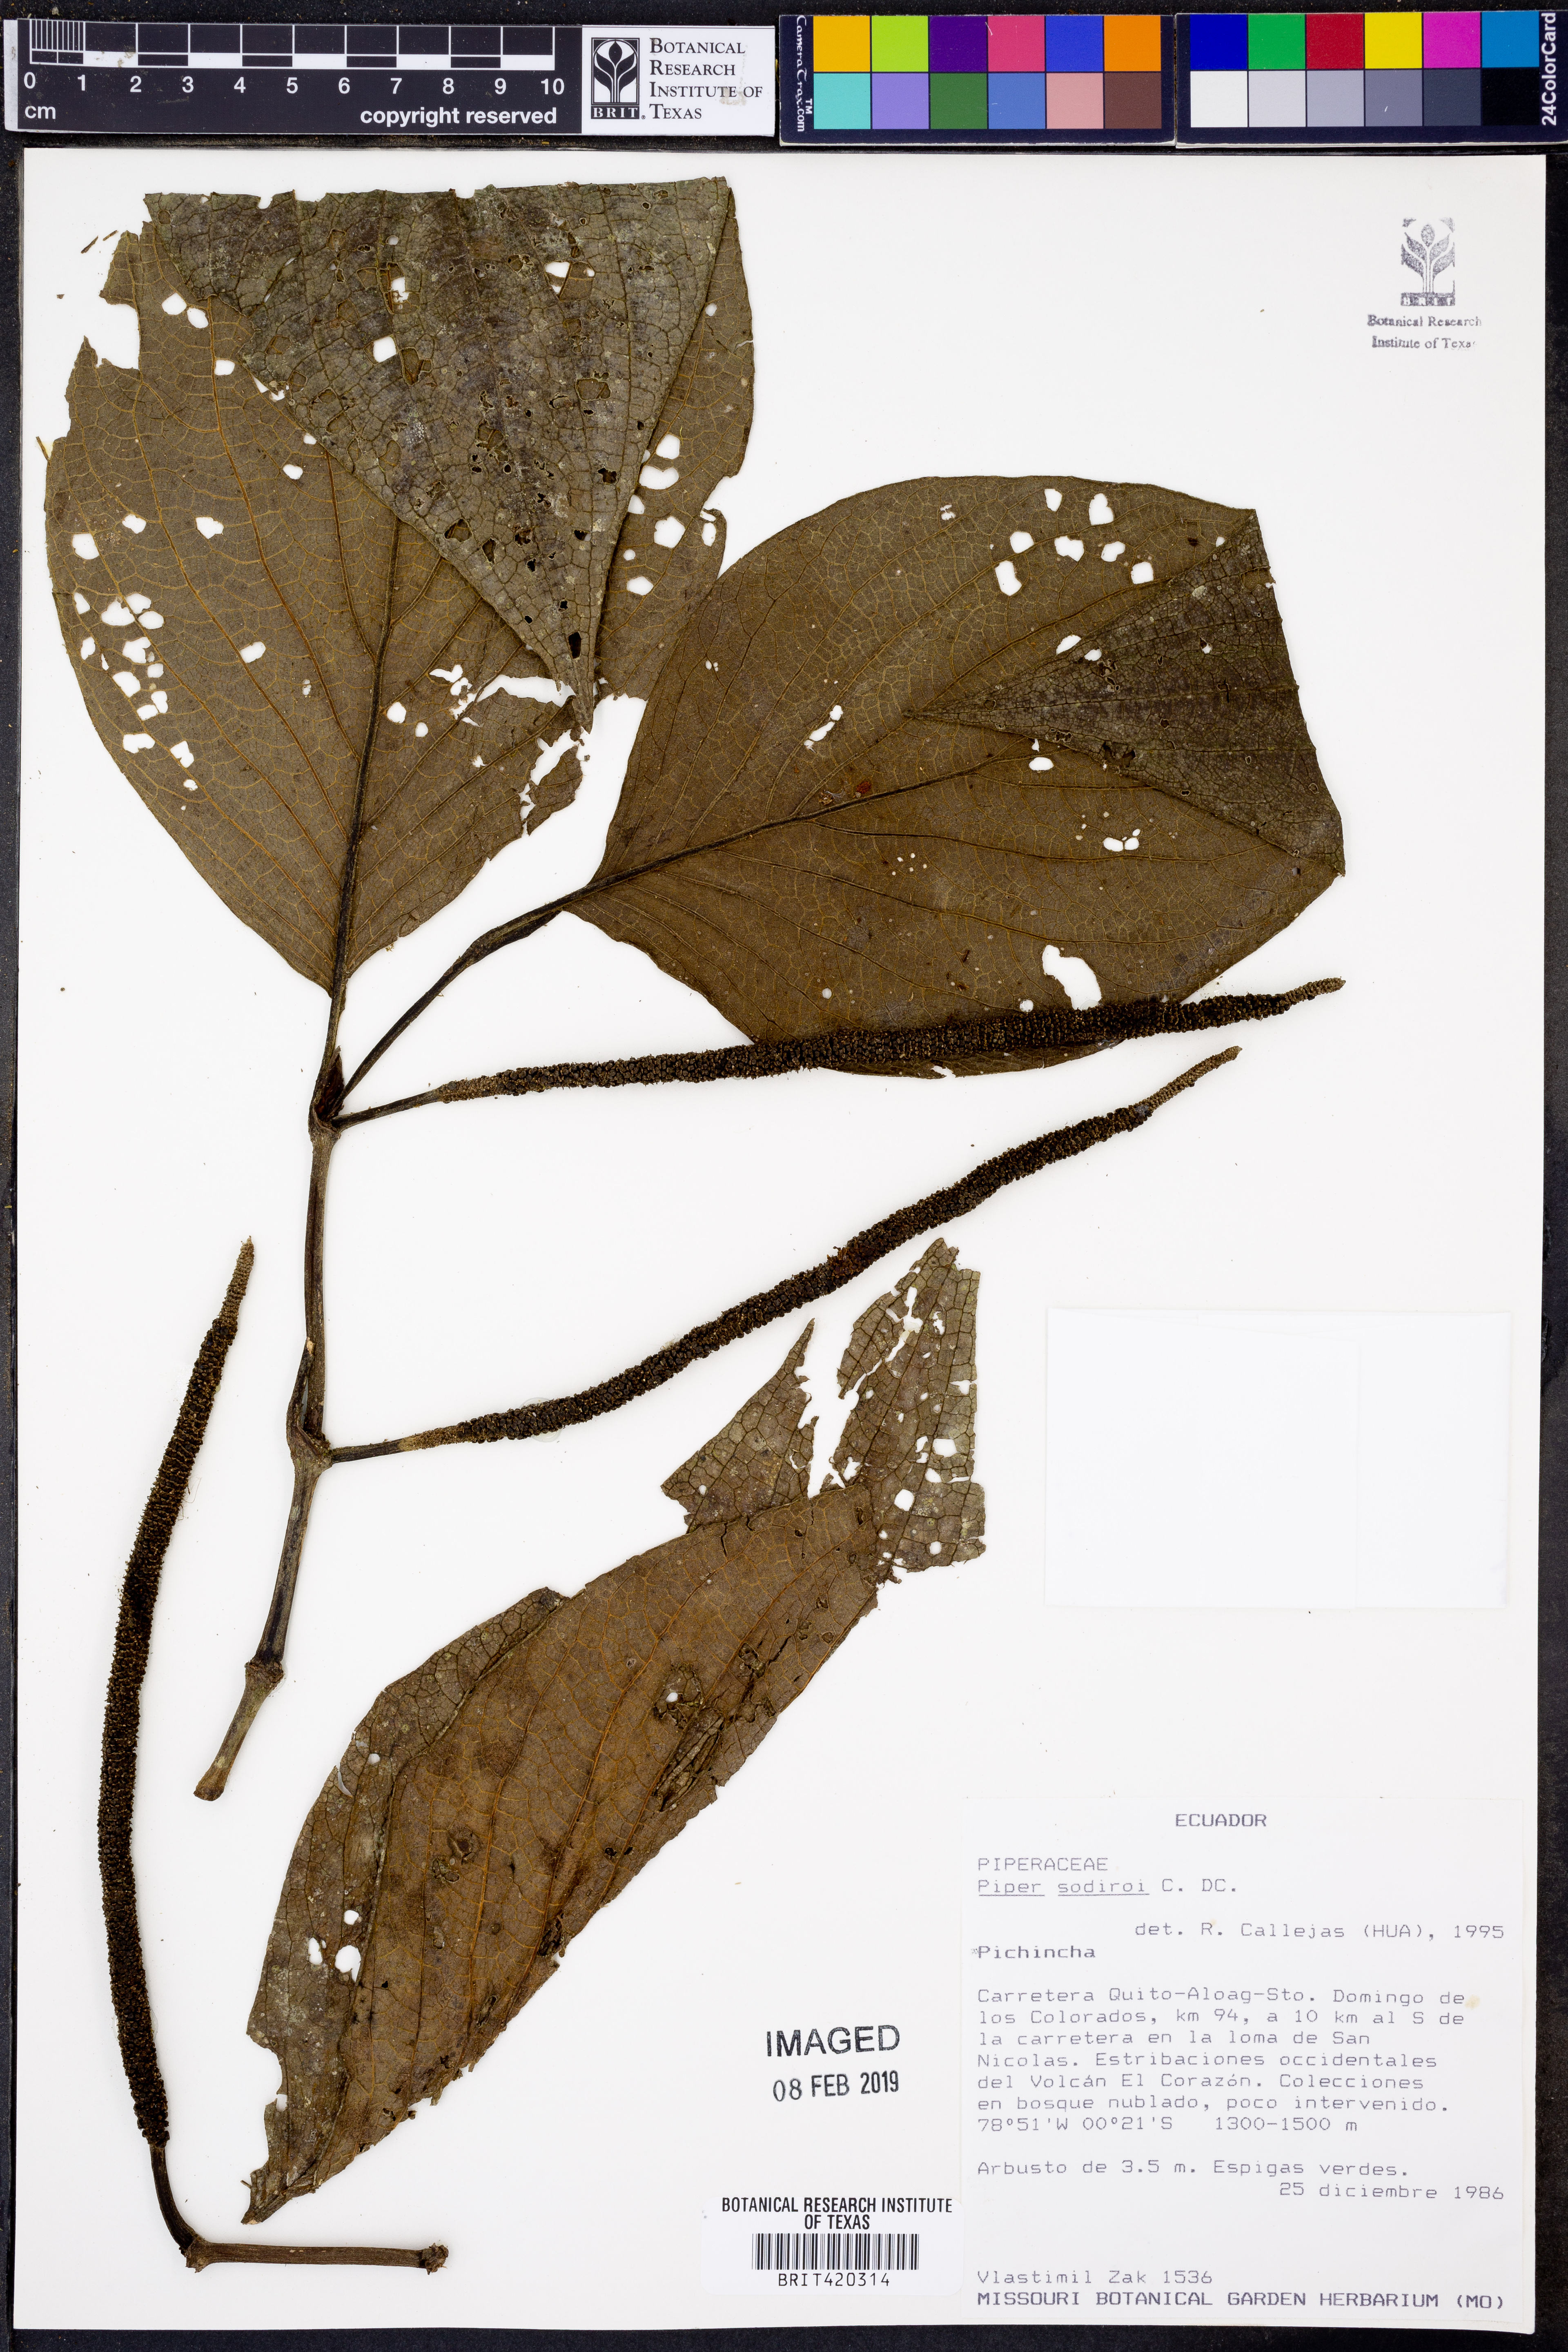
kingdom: Plantae
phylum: Tracheophyta
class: Magnoliopsida
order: Piperales
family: Piperaceae
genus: Piper
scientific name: Piper sodiroi
